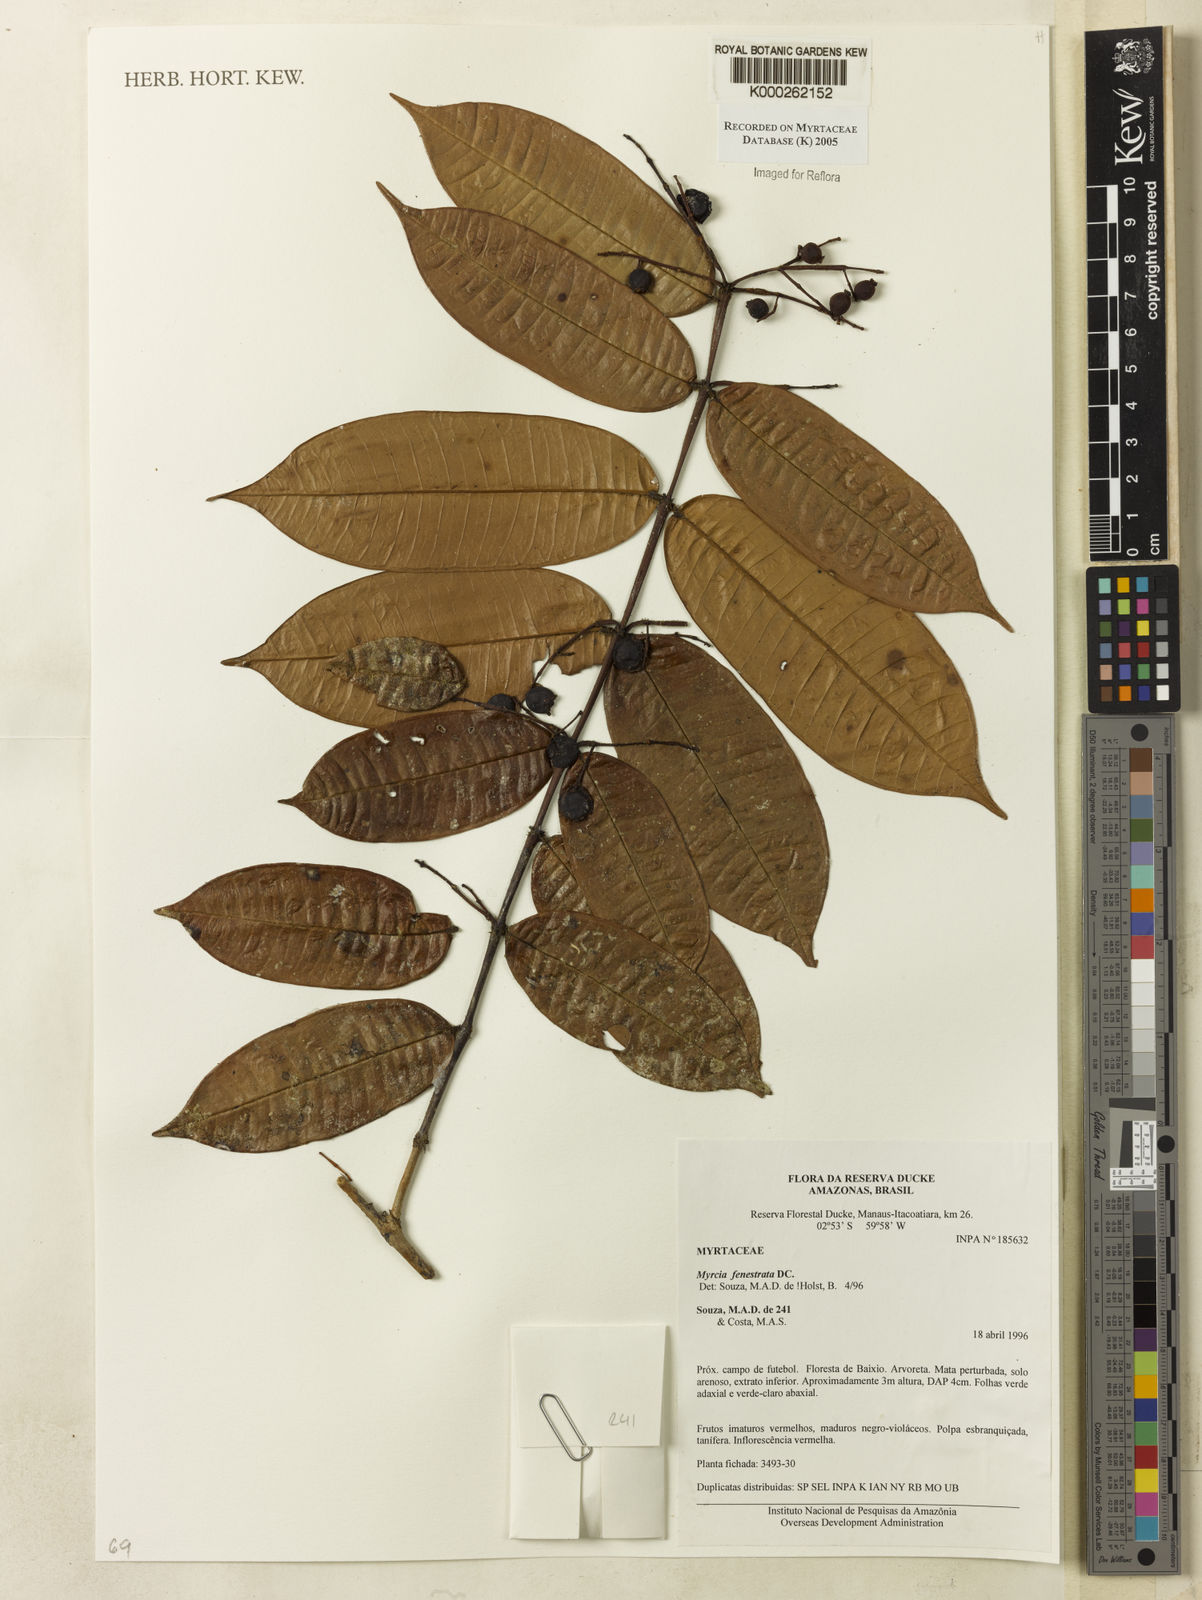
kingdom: Plantae
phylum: Tracheophyta
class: Magnoliopsida
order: Myrtales
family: Myrtaceae
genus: Myrcia
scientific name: Myrcia fenestrata
